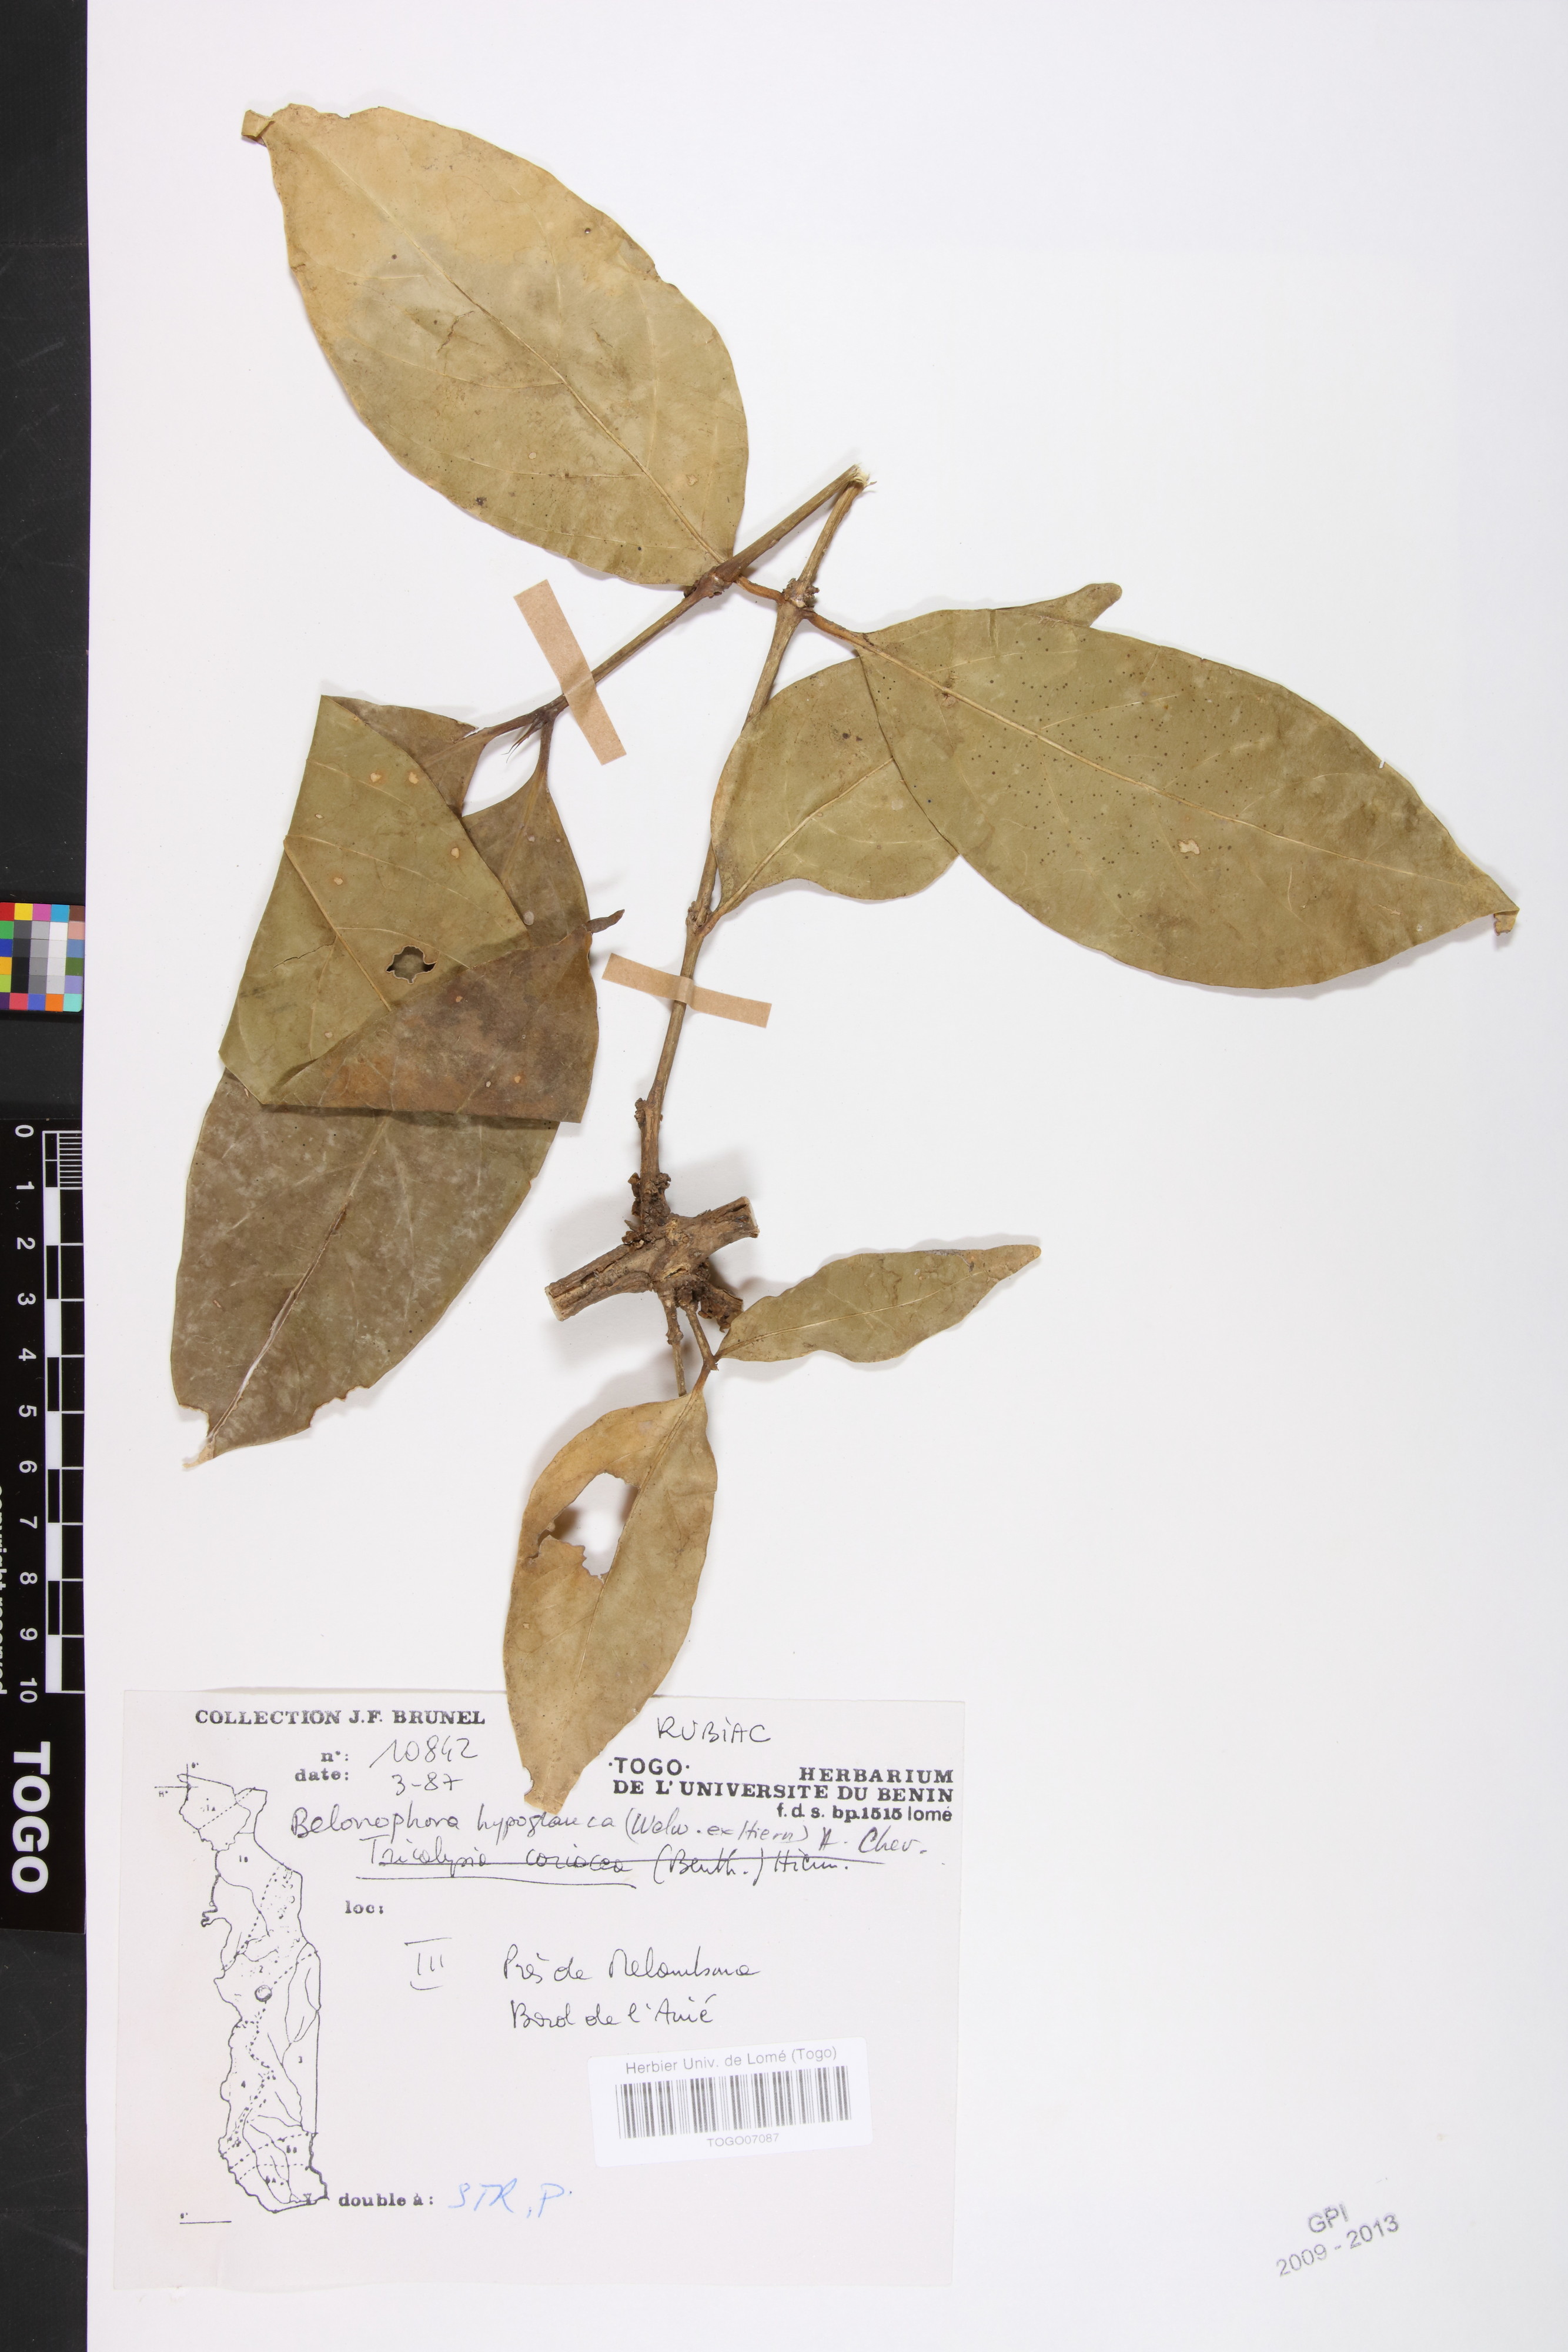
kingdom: Plantae
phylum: Tracheophyta
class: Magnoliopsida
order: Gentianales
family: Rubiaceae
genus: Belonophora
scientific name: Belonophora coffeoides
